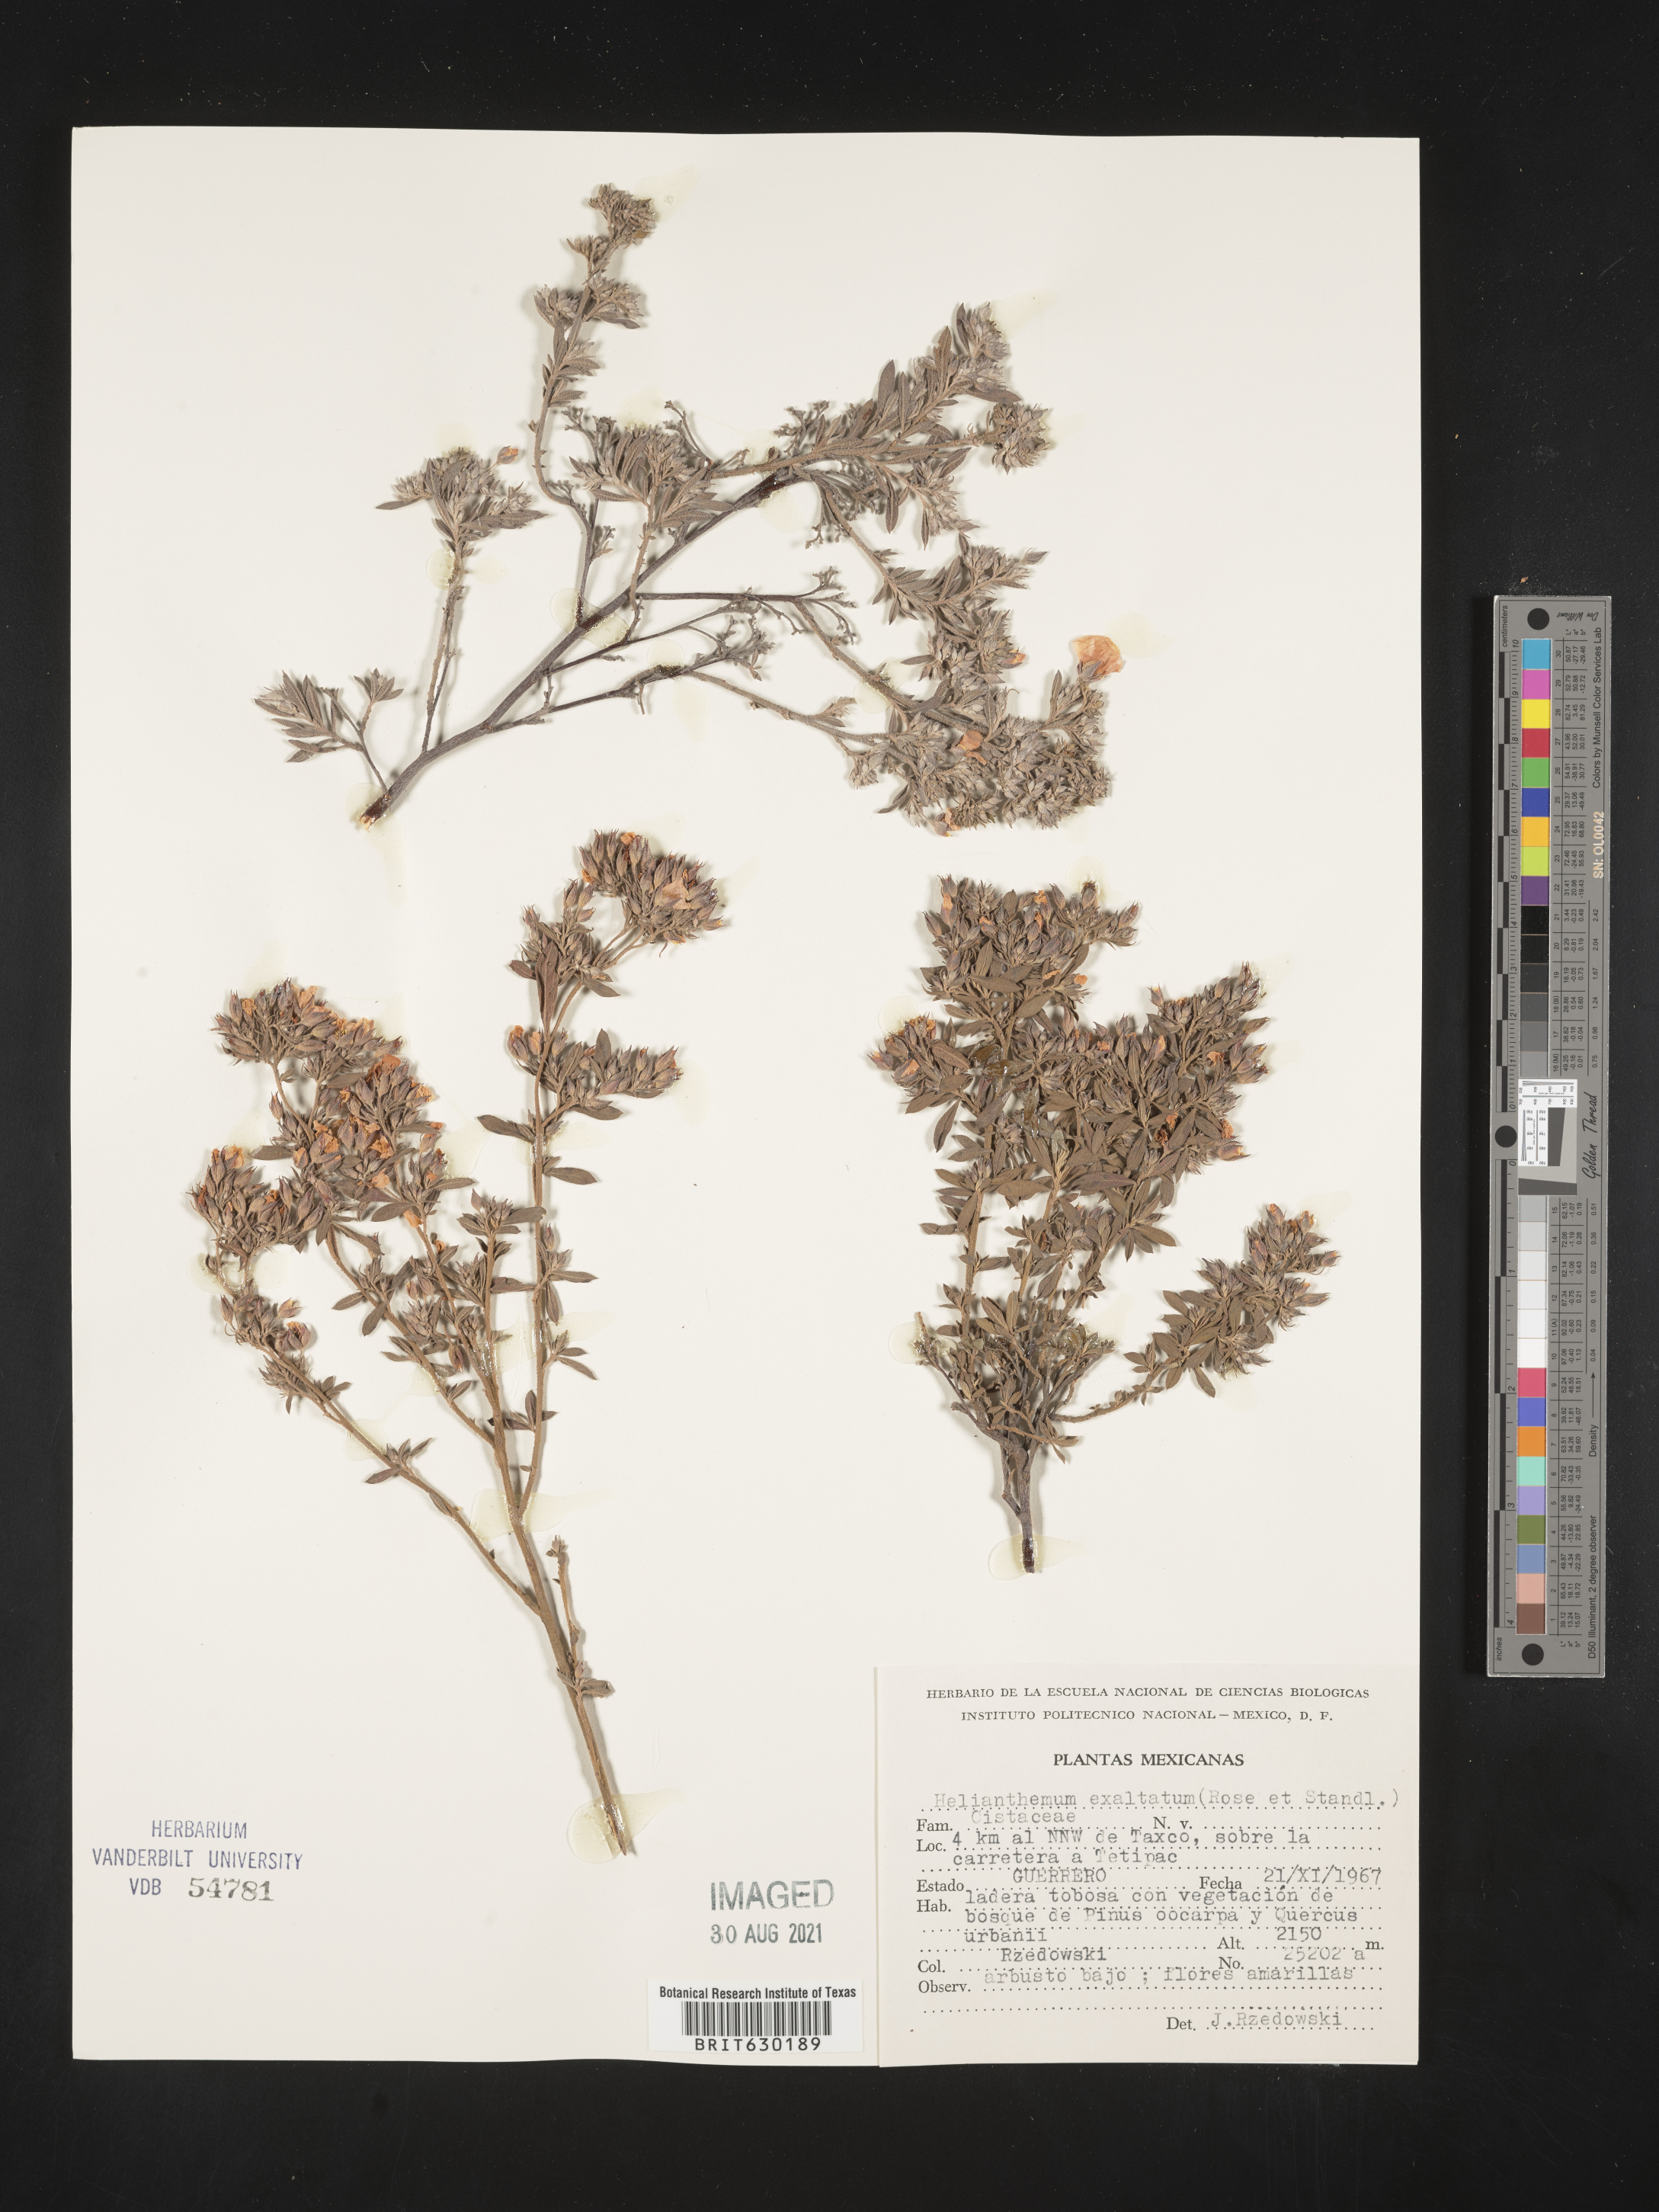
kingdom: Plantae
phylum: Tracheophyta
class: Magnoliopsida
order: Malvales
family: Cistaceae
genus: Helianthemum
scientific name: Helianthemum
